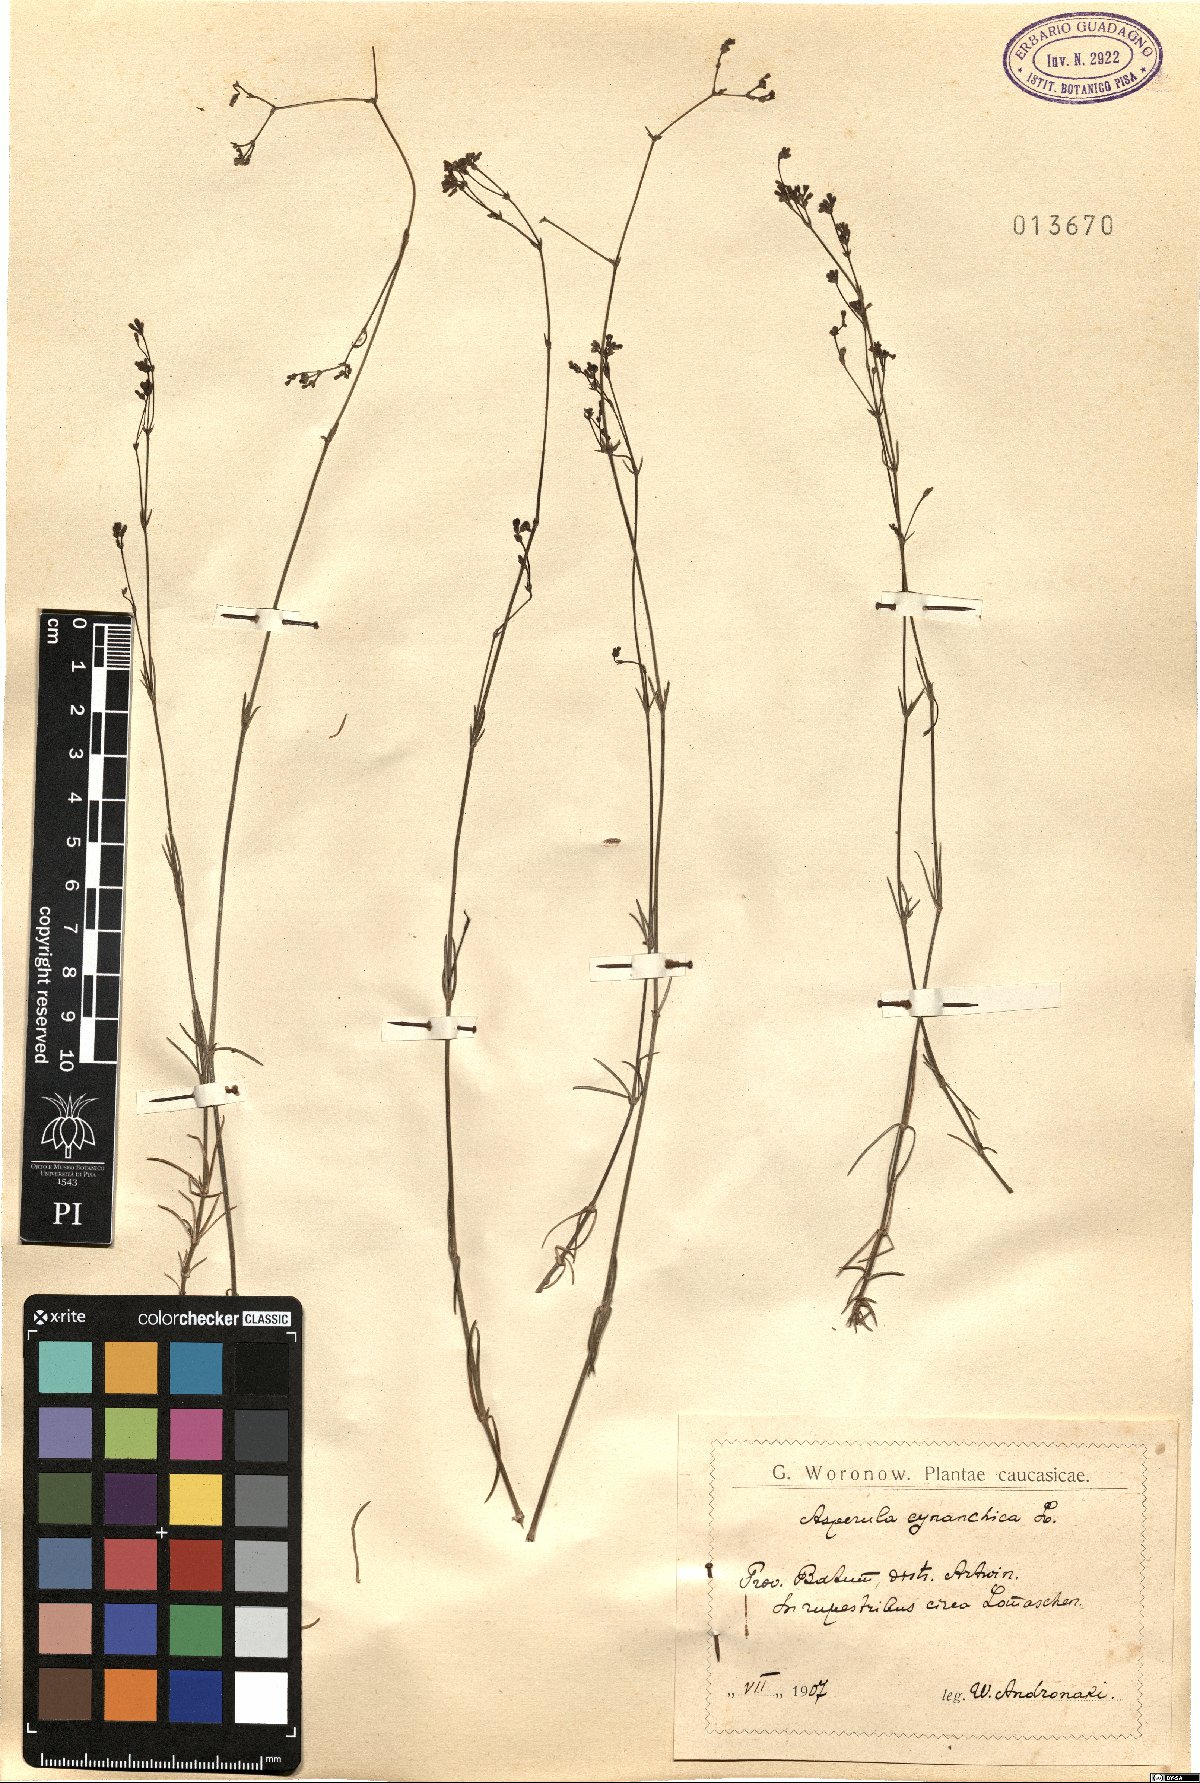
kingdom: Plantae
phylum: Tracheophyta
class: Magnoliopsida
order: Gentianales
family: Rubiaceae
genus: Cynanchica
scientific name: Cynanchica pyrenaica
